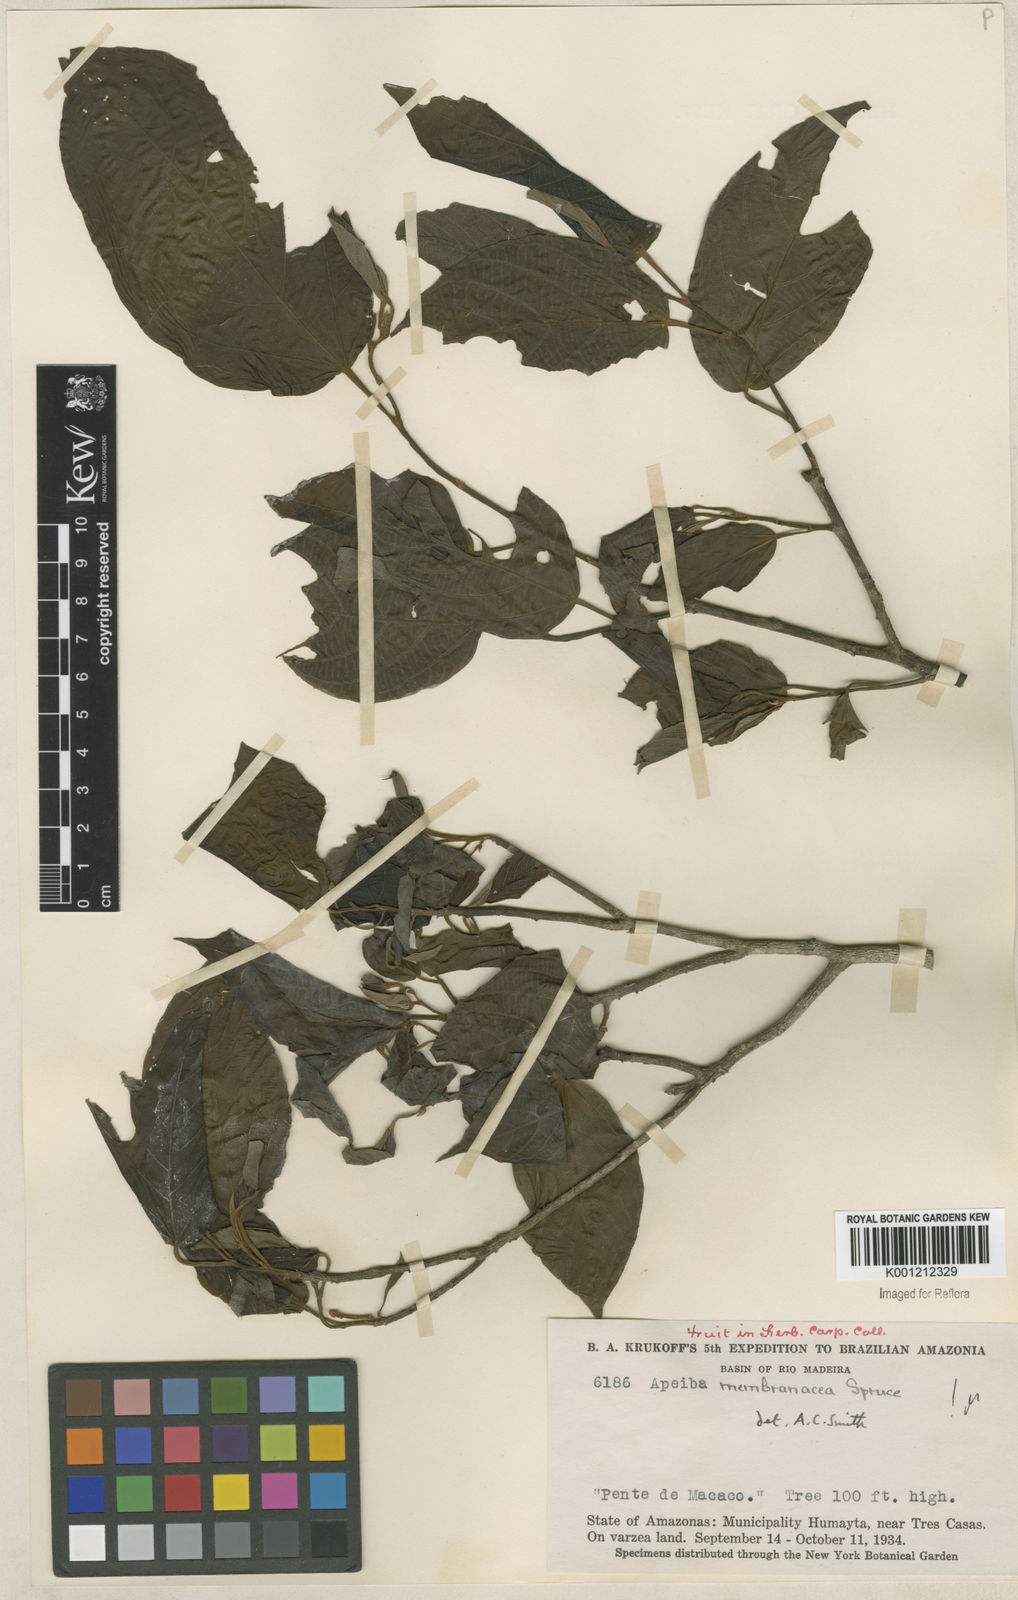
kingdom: Plantae
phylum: Tracheophyta
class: Magnoliopsida
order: Malvales
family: Malvaceae
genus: Apeiba
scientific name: Apeiba membranacea
